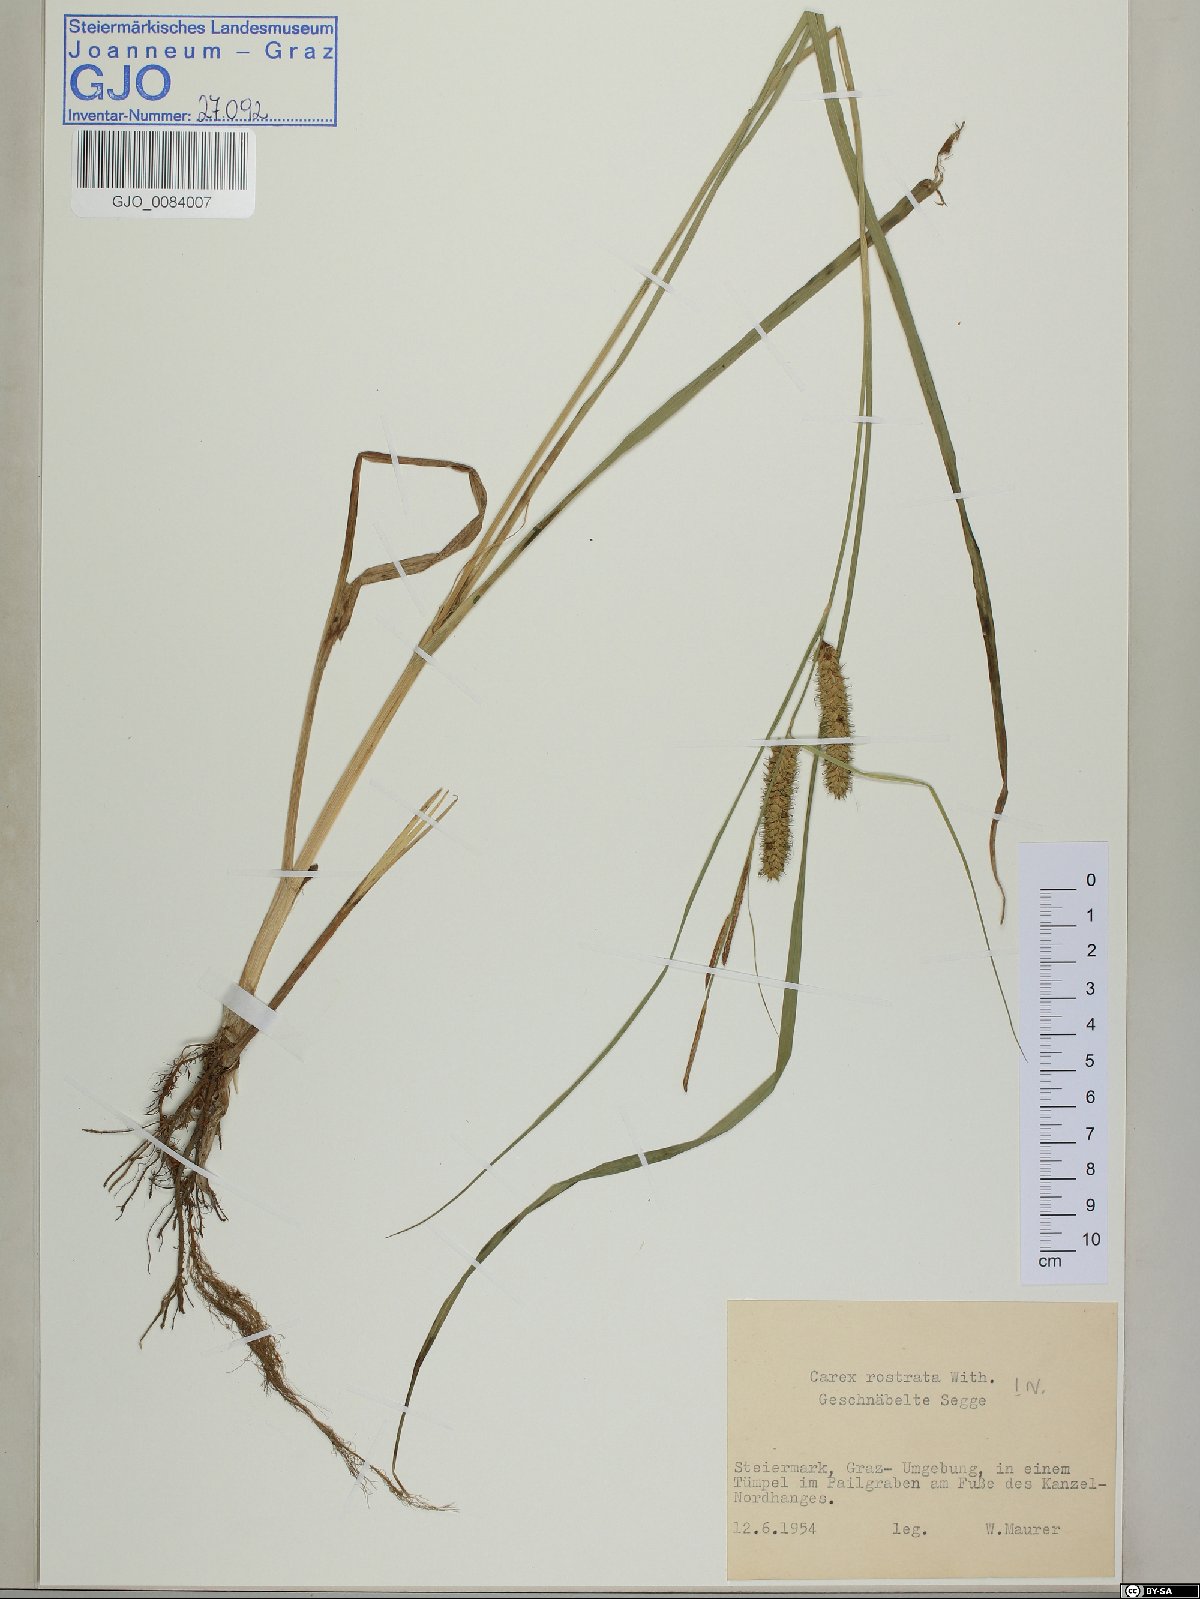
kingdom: Plantae
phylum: Tracheophyta
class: Liliopsida
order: Poales
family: Cyperaceae
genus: Carex
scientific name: Carex rostrata
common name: Bottle sedge
